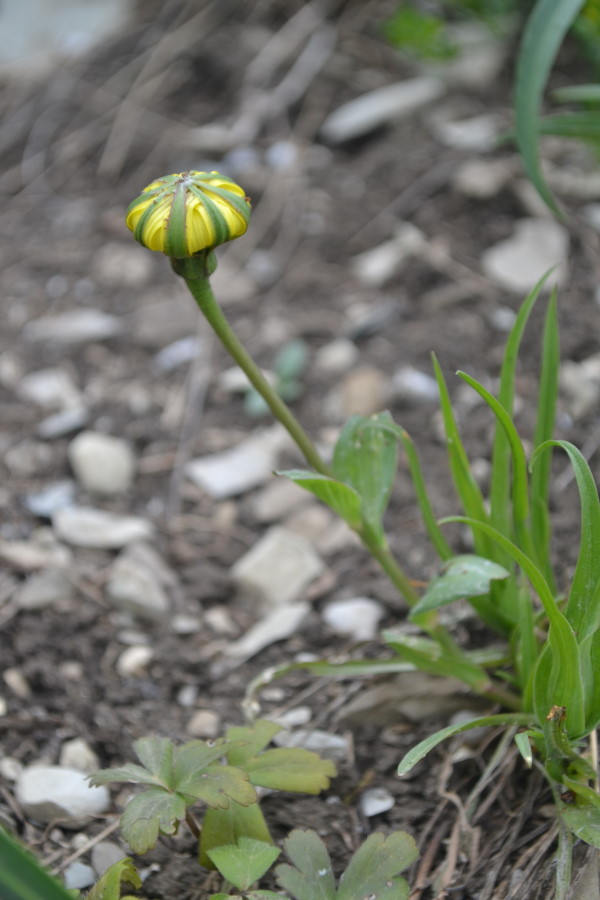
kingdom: Plantae
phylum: Tracheophyta
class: Magnoliopsida
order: Asterales
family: Asteraceae
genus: Tragopogon
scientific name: Tragopogon tuberosus
